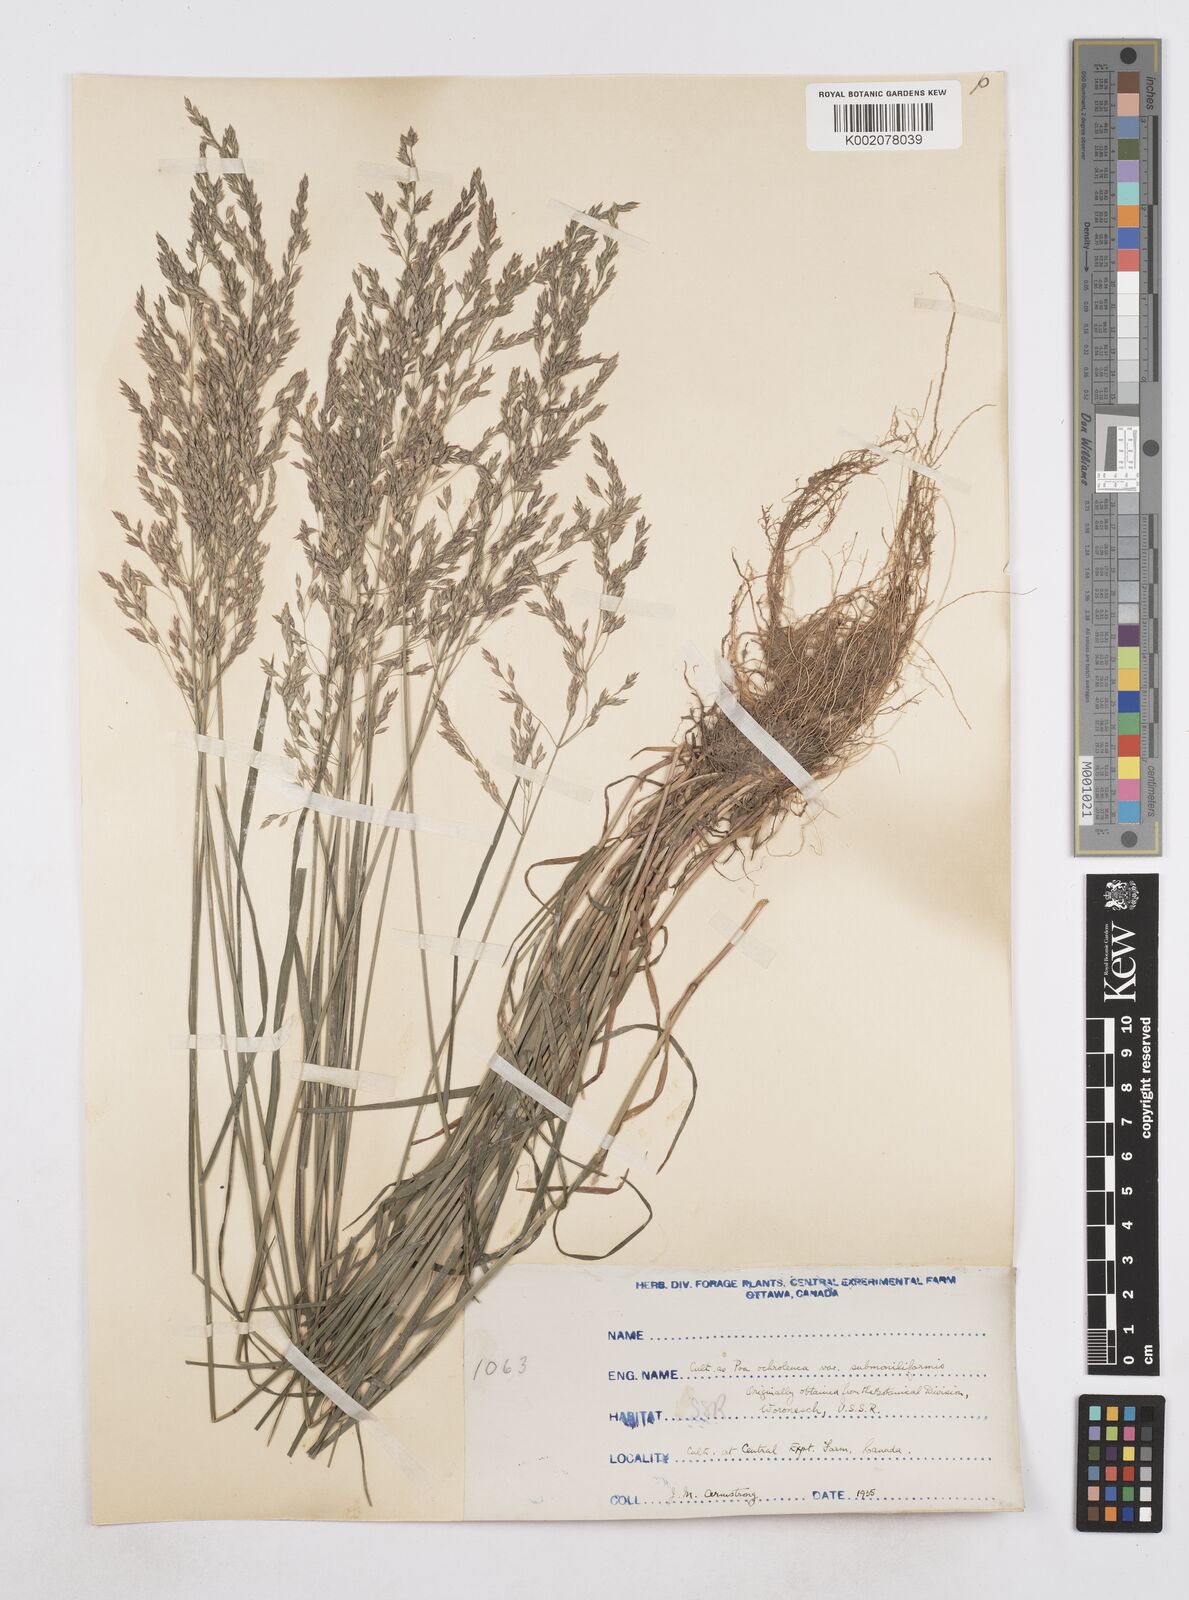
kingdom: Plantae
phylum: Tracheophyta
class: Liliopsida
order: Poales
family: Poaceae
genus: Poa
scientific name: Poa
